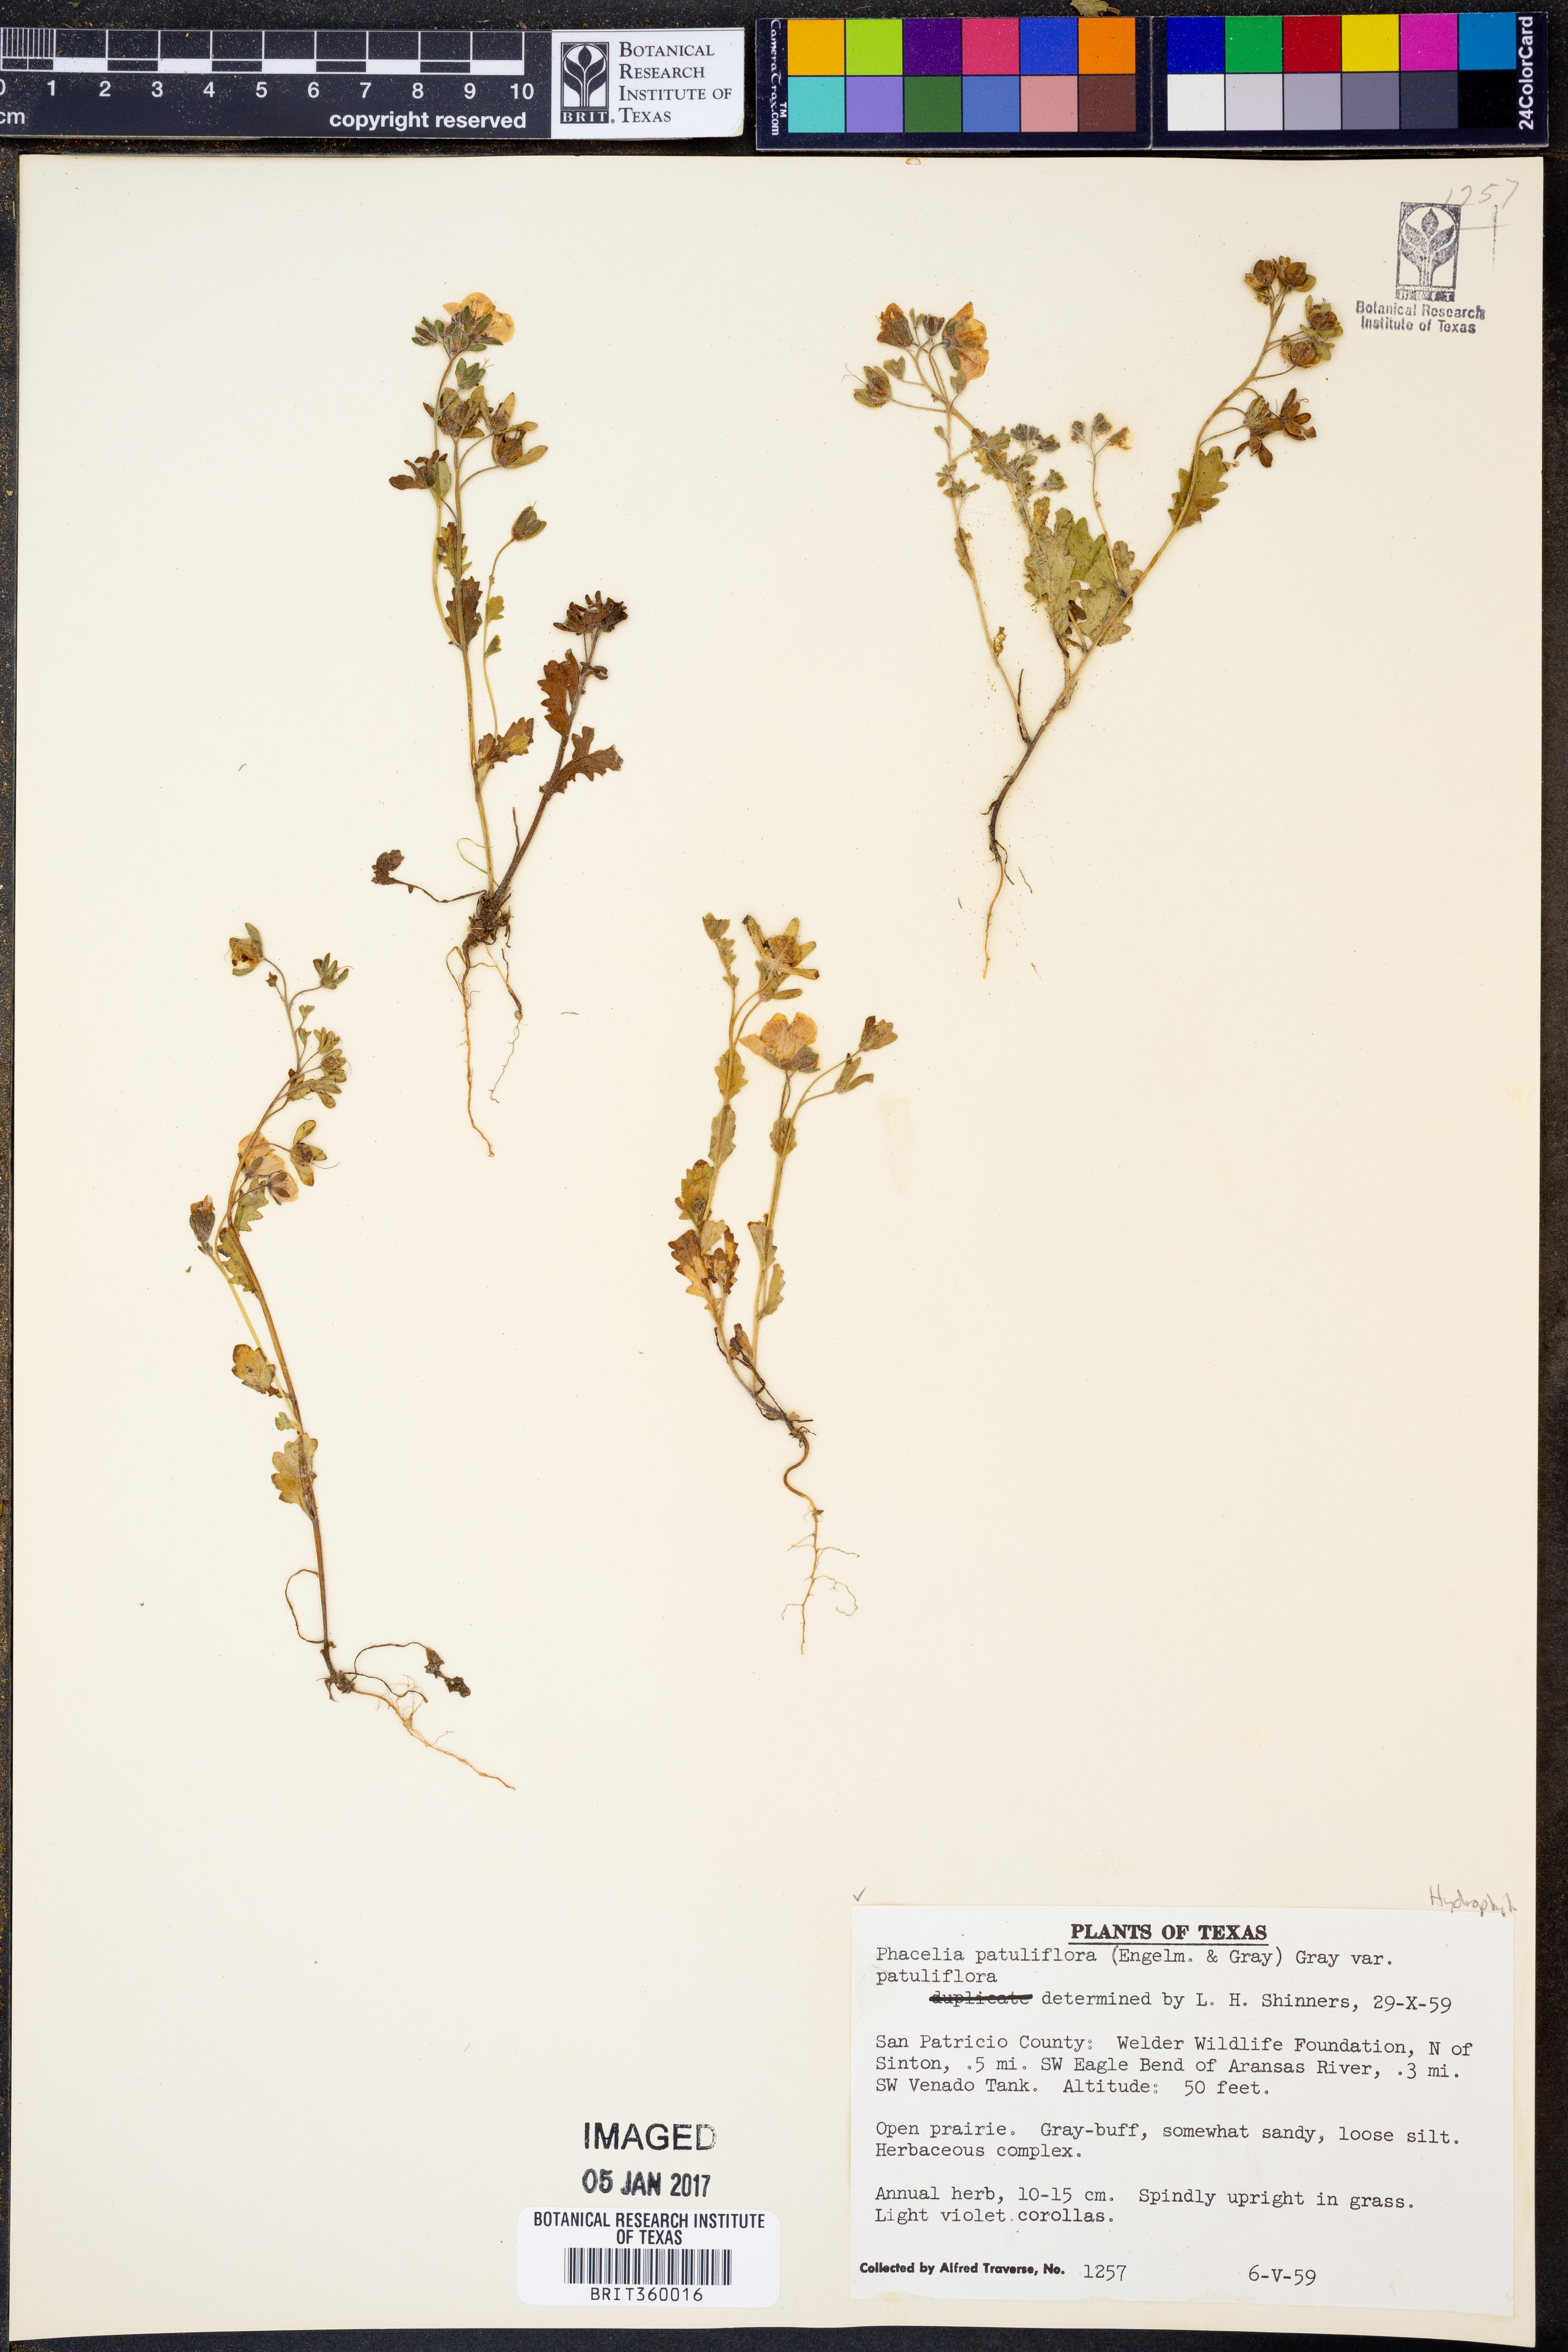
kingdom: Plantae
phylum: Tracheophyta
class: Magnoliopsida
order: Boraginales
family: Hydrophyllaceae
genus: Phacelia
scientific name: Phacelia patuliflora
